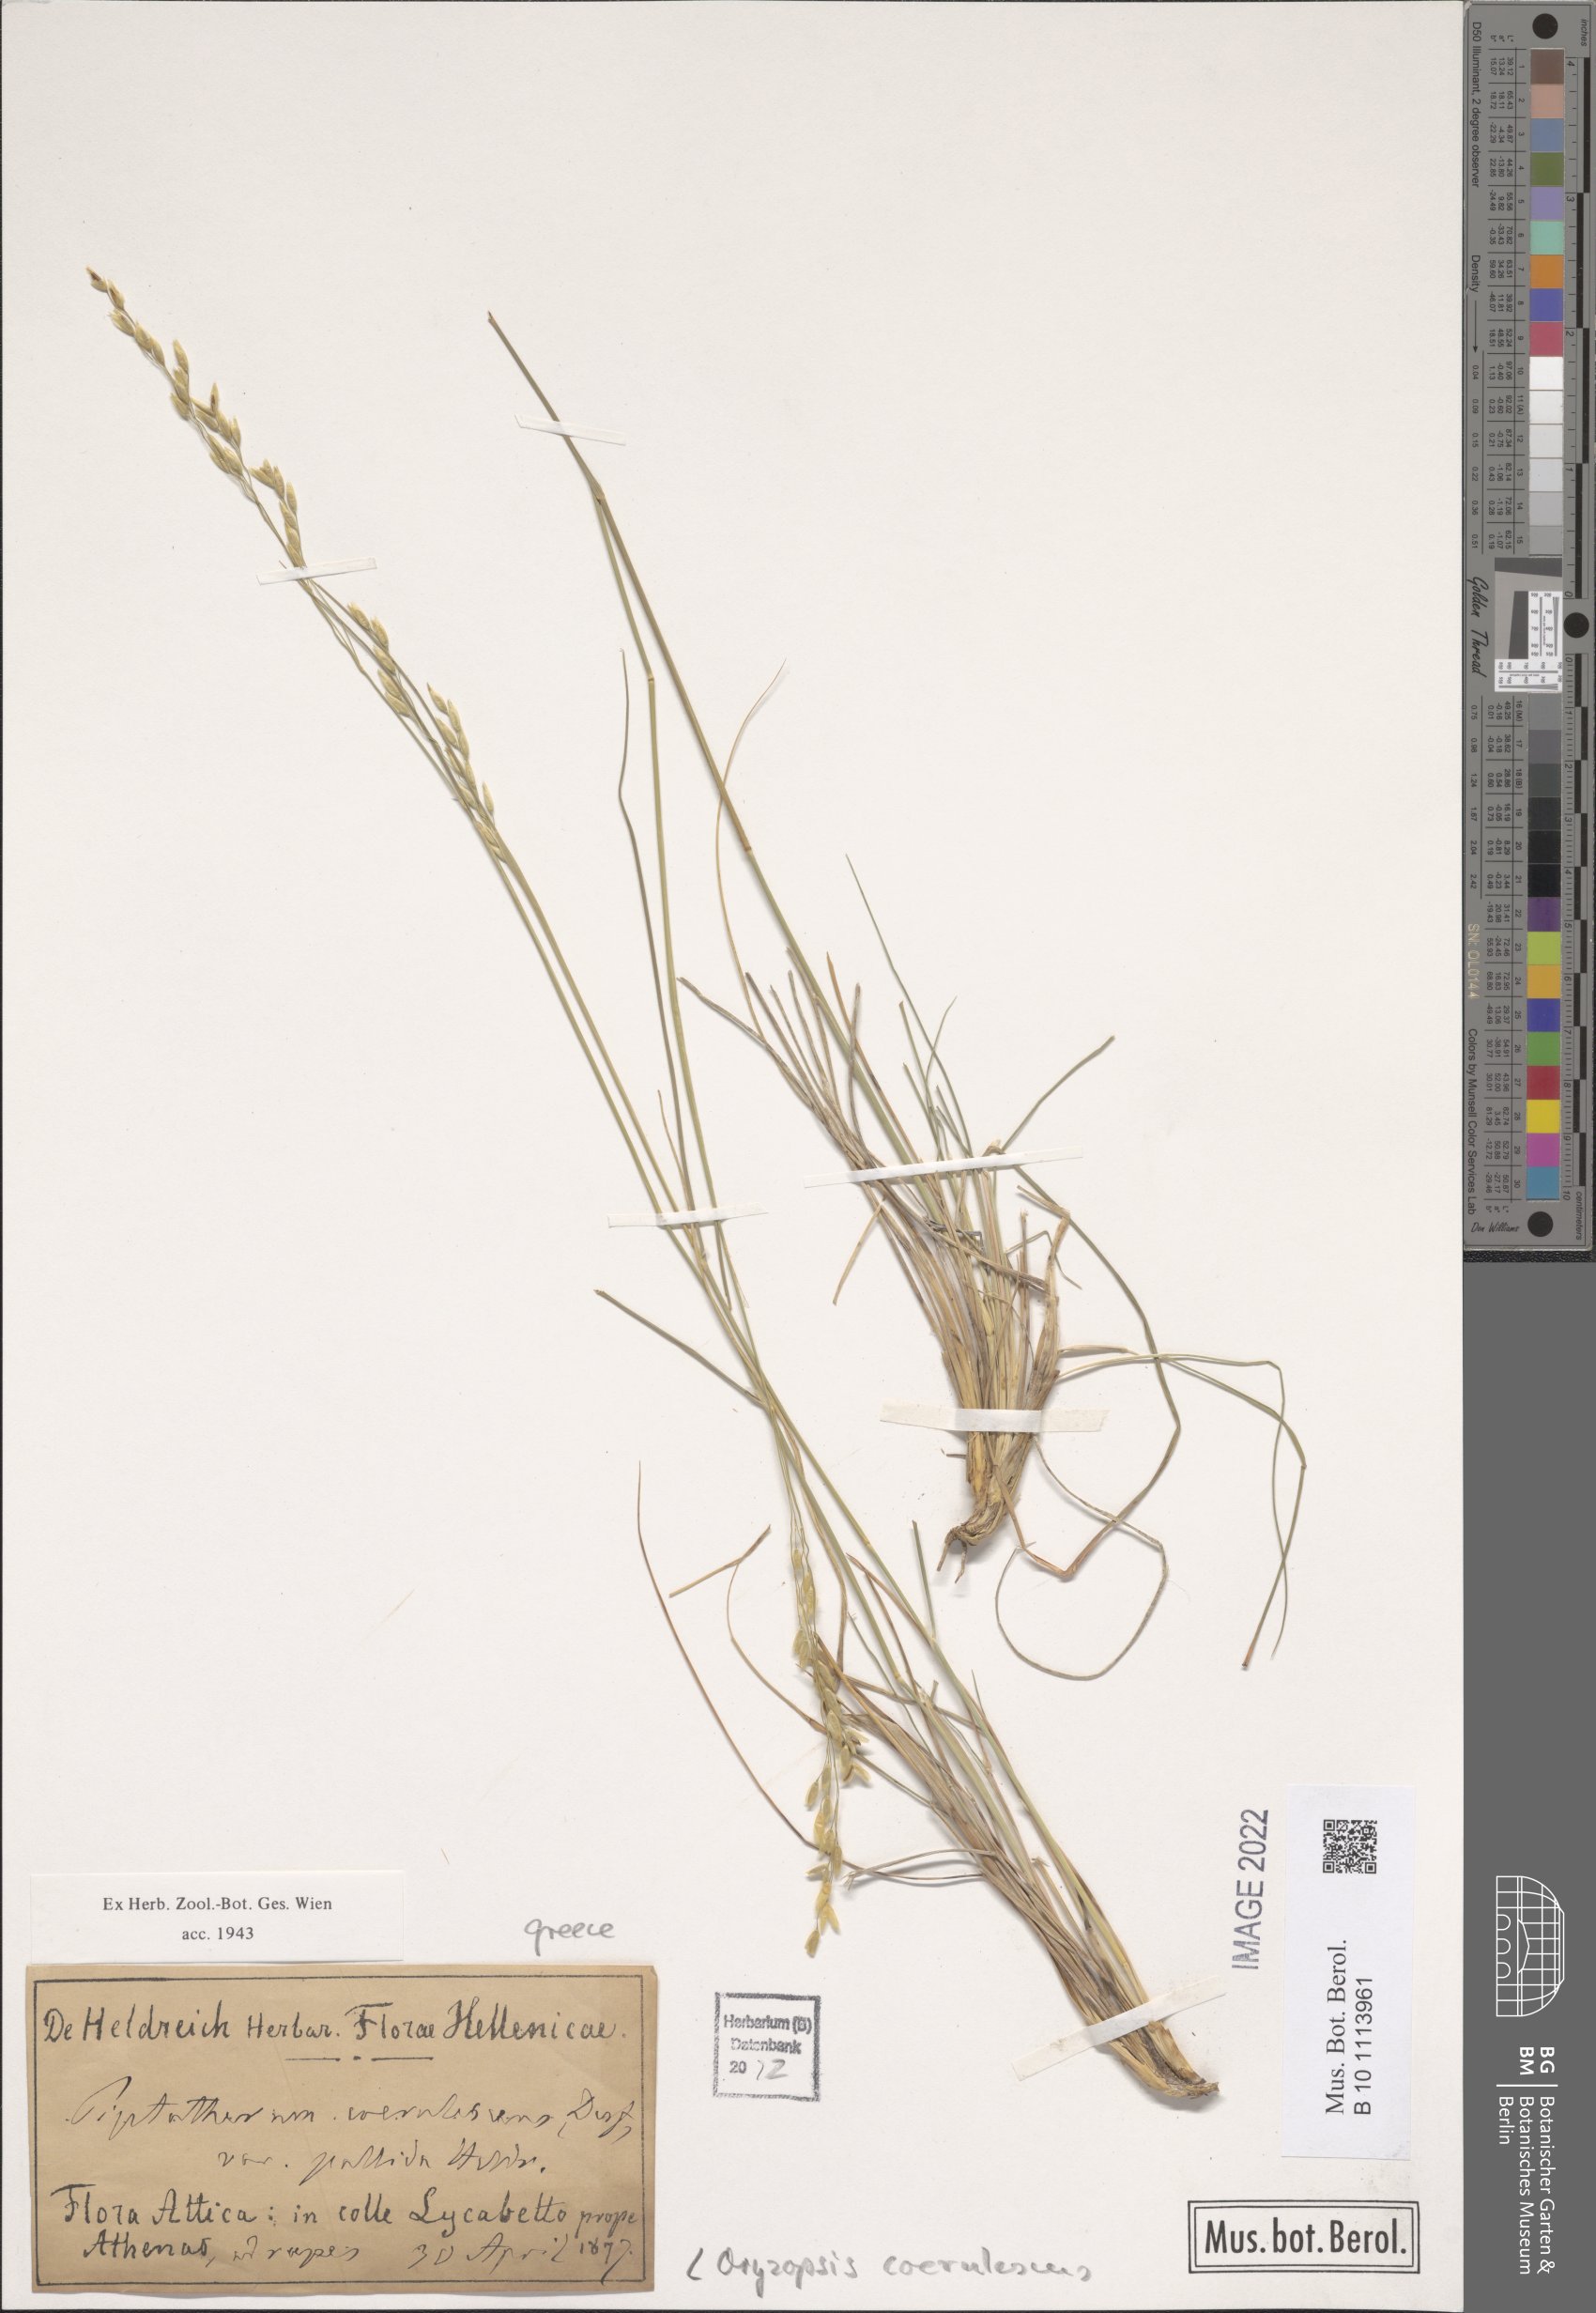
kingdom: Plantae
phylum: Tracheophyta
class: Liliopsida
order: Poales
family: Poaceae
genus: Piptatherum
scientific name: Piptatherum coerulescens
